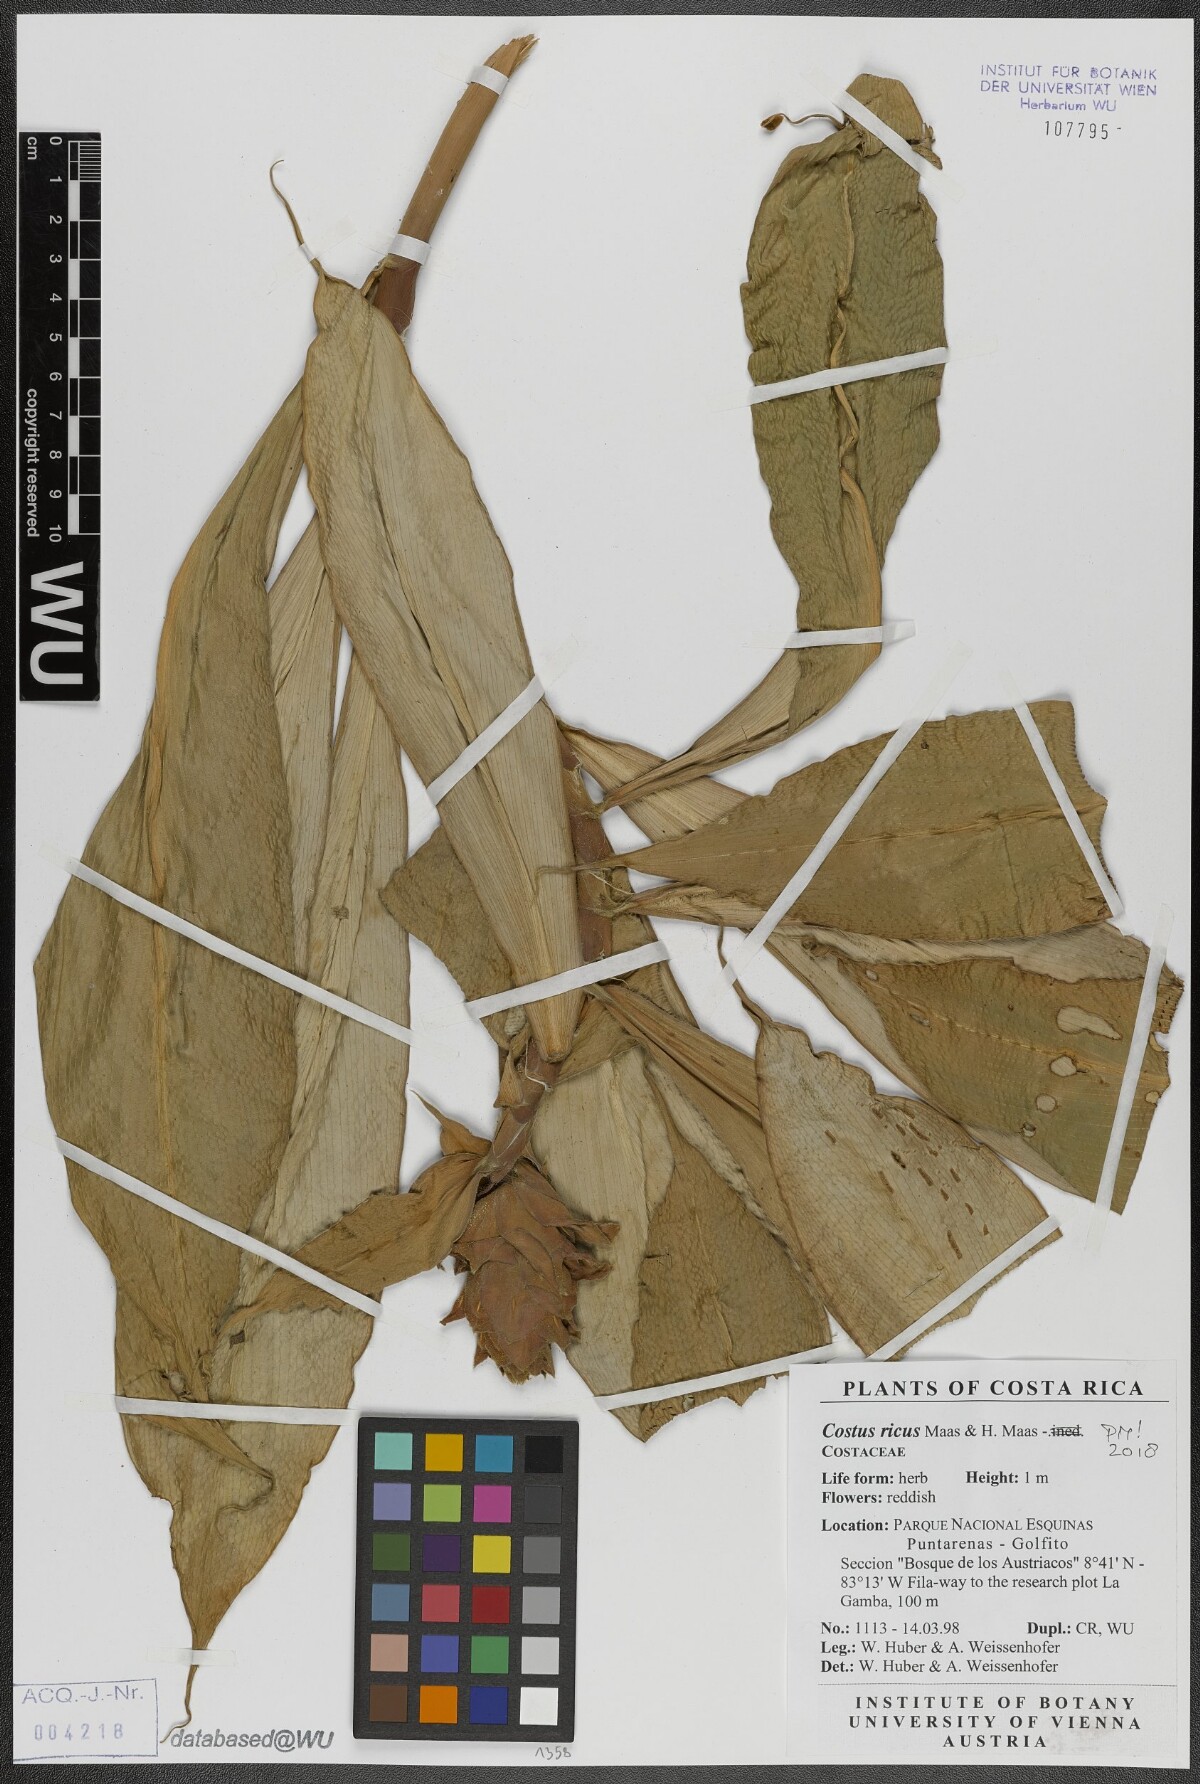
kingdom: Plantae
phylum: Tracheophyta
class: Liliopsida
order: Zingiberales
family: Costaceae
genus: Costus
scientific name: Costus ricus
